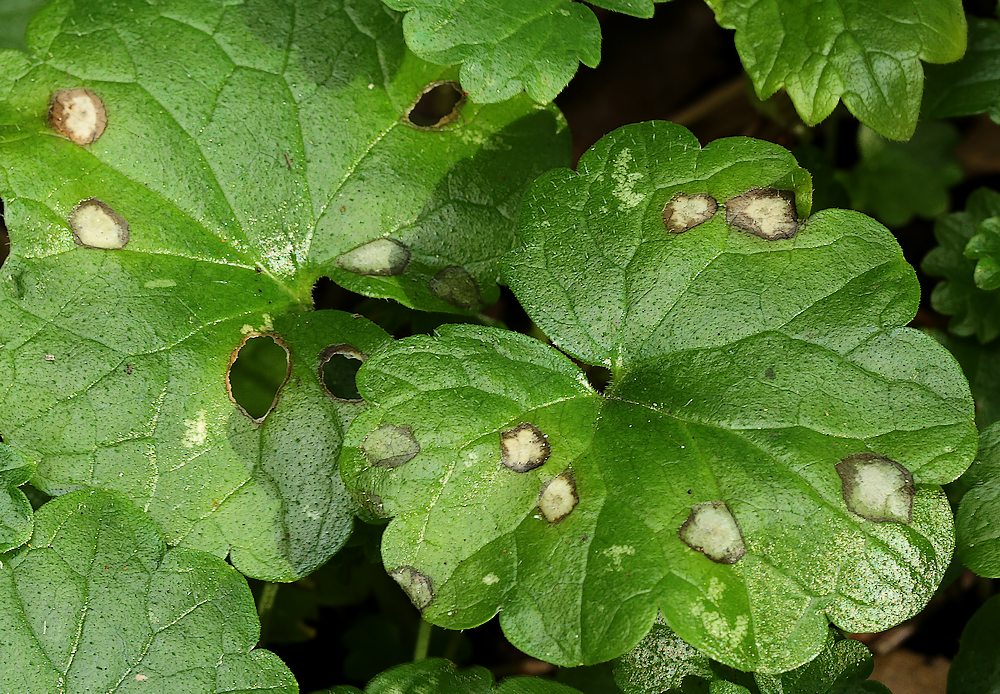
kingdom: Fungi
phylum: Ascomycota
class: Dothideomycetes
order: Mycosphaerellales
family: Mycosphaerellaceae
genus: Ramularia
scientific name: Ramularia glechomatis
